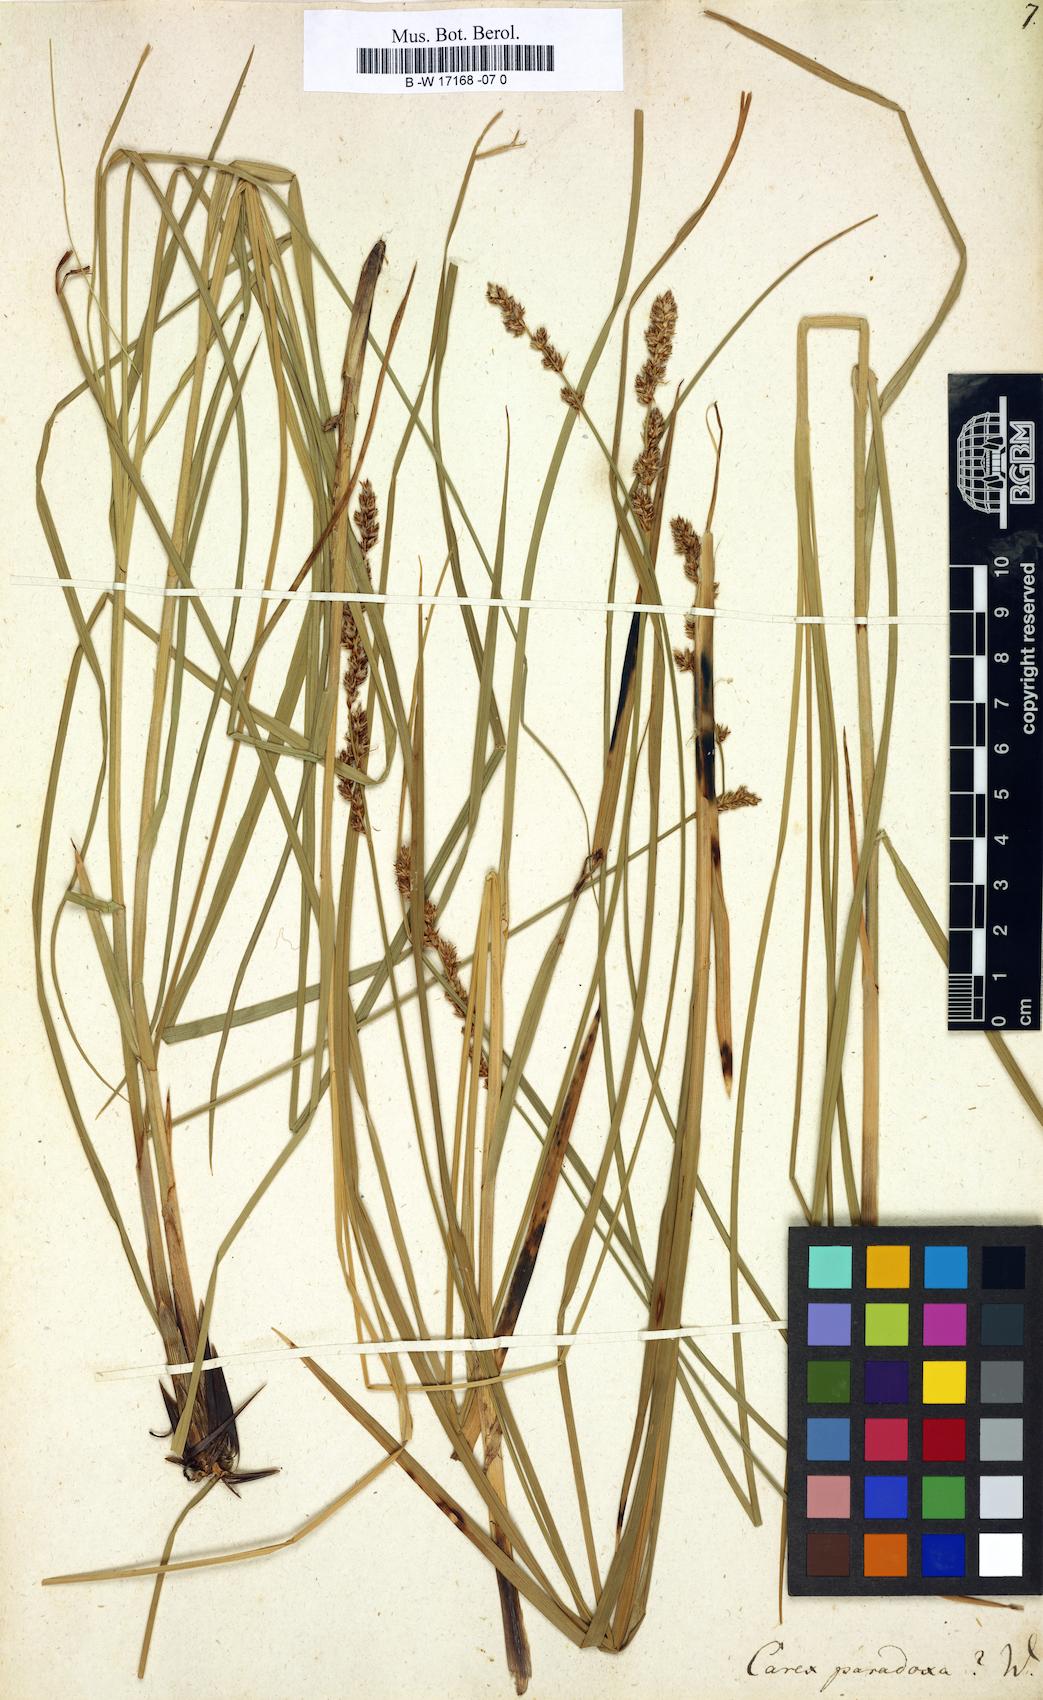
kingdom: Plantae
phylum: Tracheophyta
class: Liliopsida
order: Poales
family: Cyperaceae
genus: Carex
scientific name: Carex
